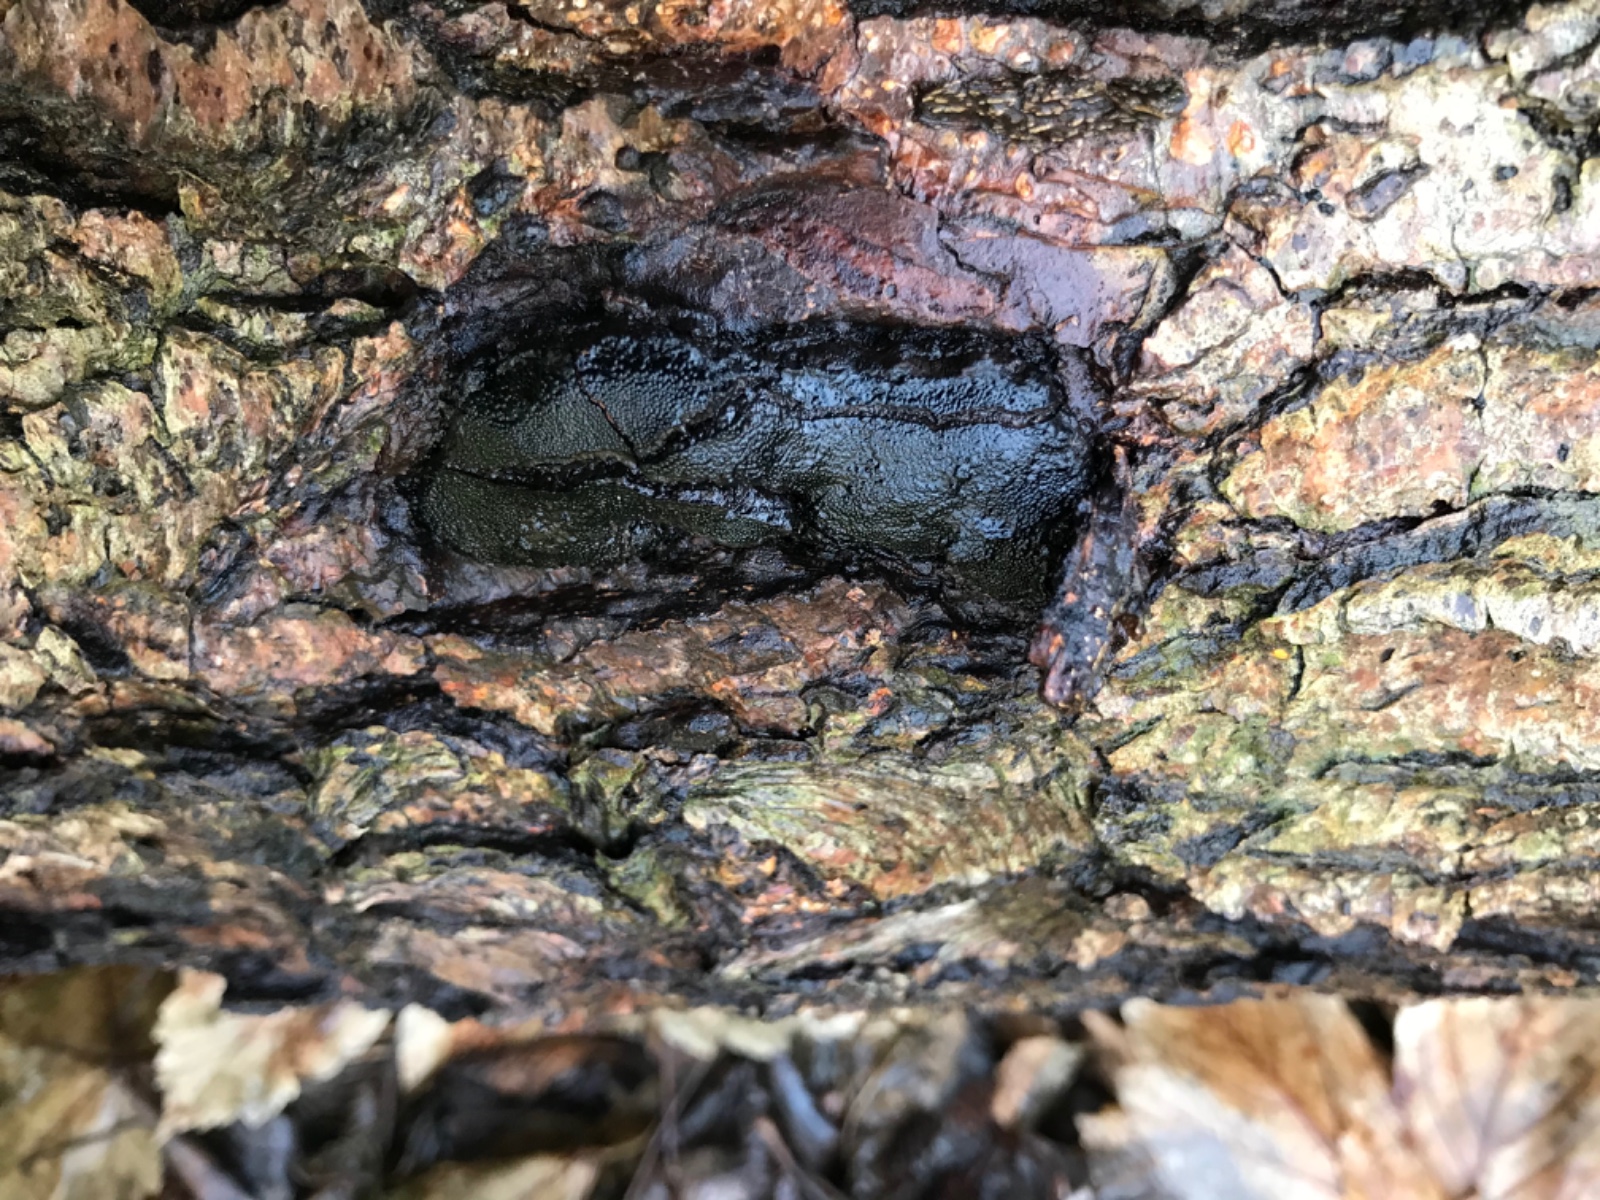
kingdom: Fungi
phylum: Ascomycota
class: Sordariomycetes
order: Boliniales
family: Boliniaceae
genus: Camarops
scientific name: Camarops polysperma
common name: elle-kulsnegl
